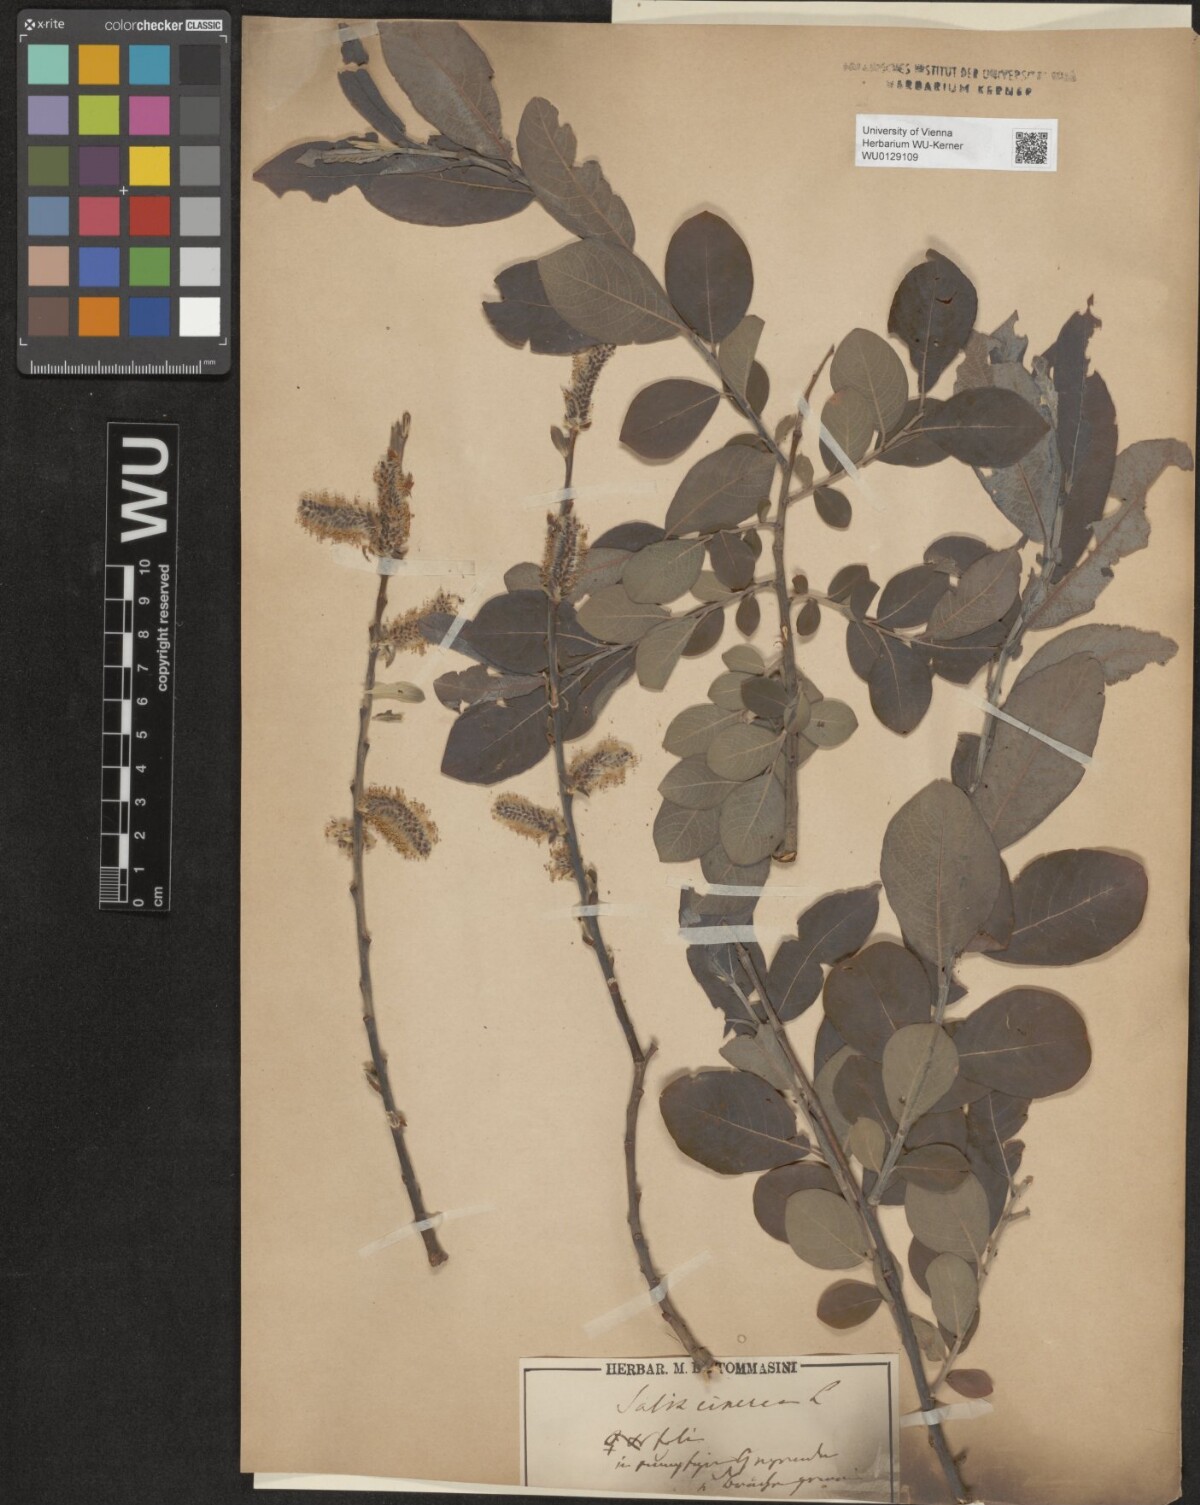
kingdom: Plantae
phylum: Tracheophyta
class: Magnoliopsida
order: Malpighiales
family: Salicaceae
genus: Salix
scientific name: Salix cinerea
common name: Common sallow
